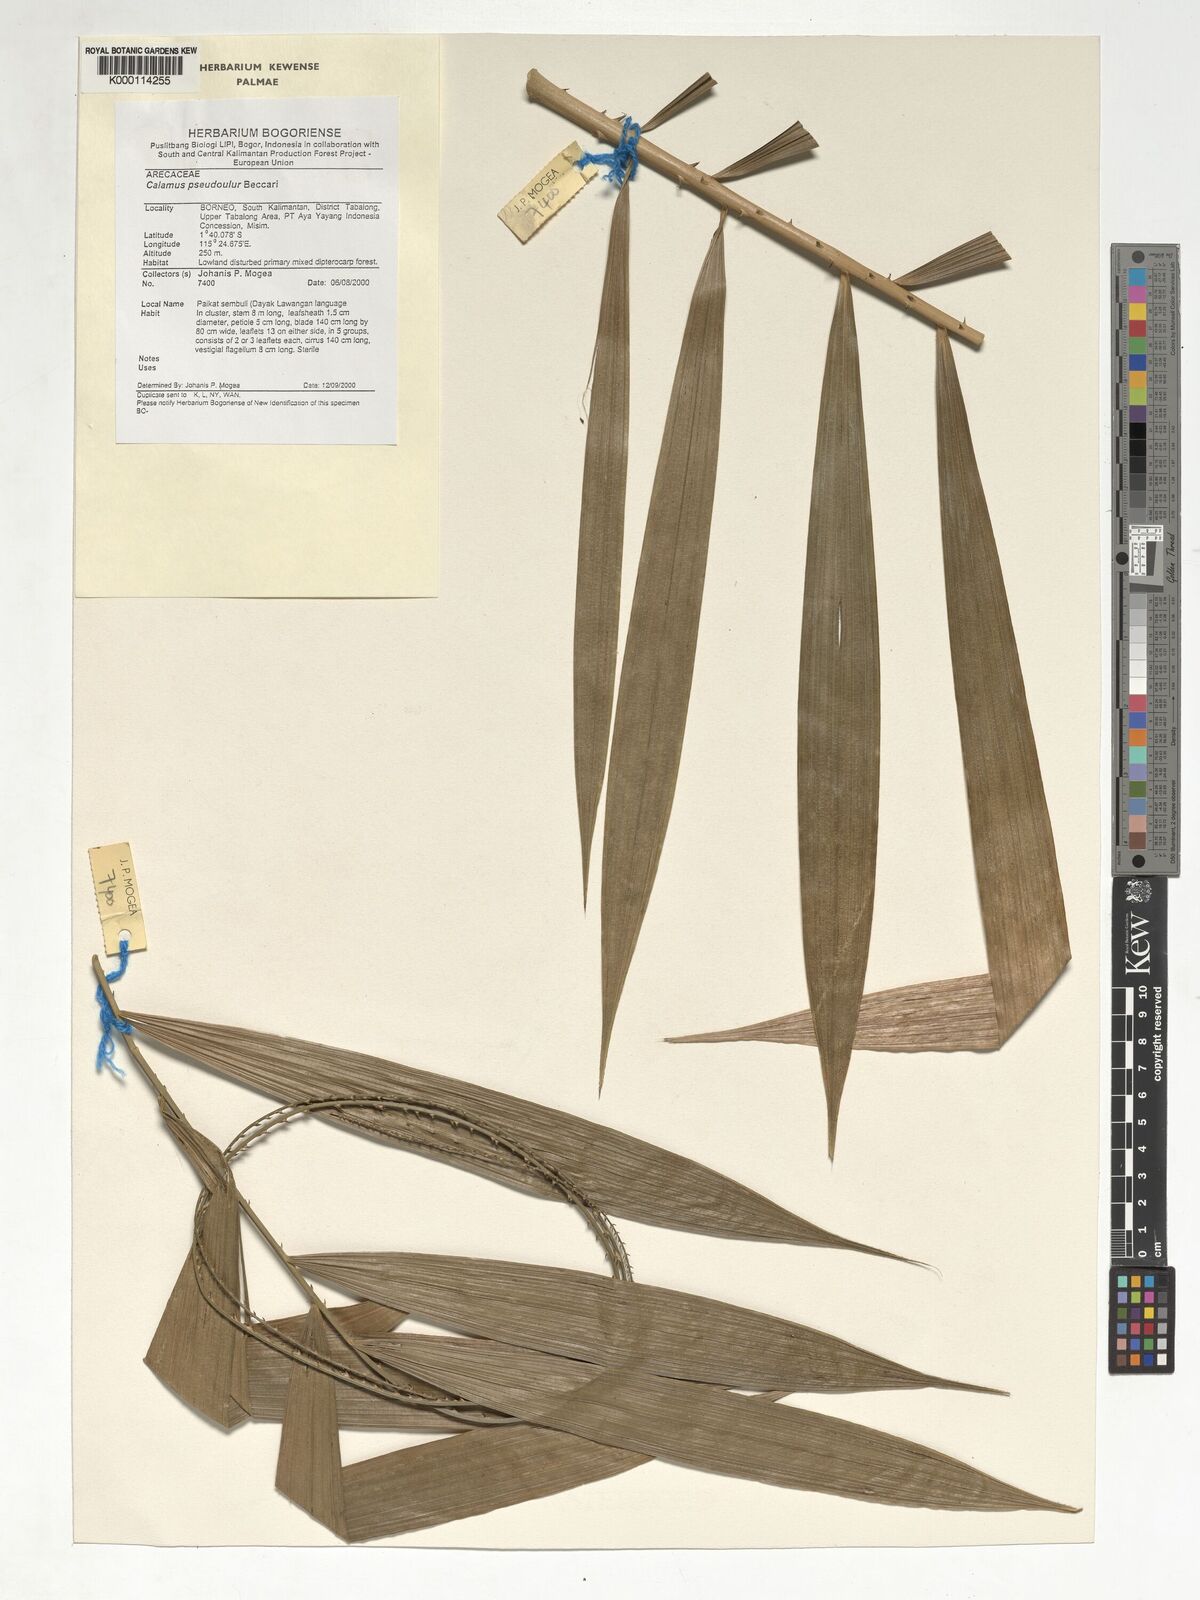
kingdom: Plantae
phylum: Tracheophyta
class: Liliopsida
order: Arecales
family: Arecaceae
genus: Calamus
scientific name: Calamus erioacanthus
